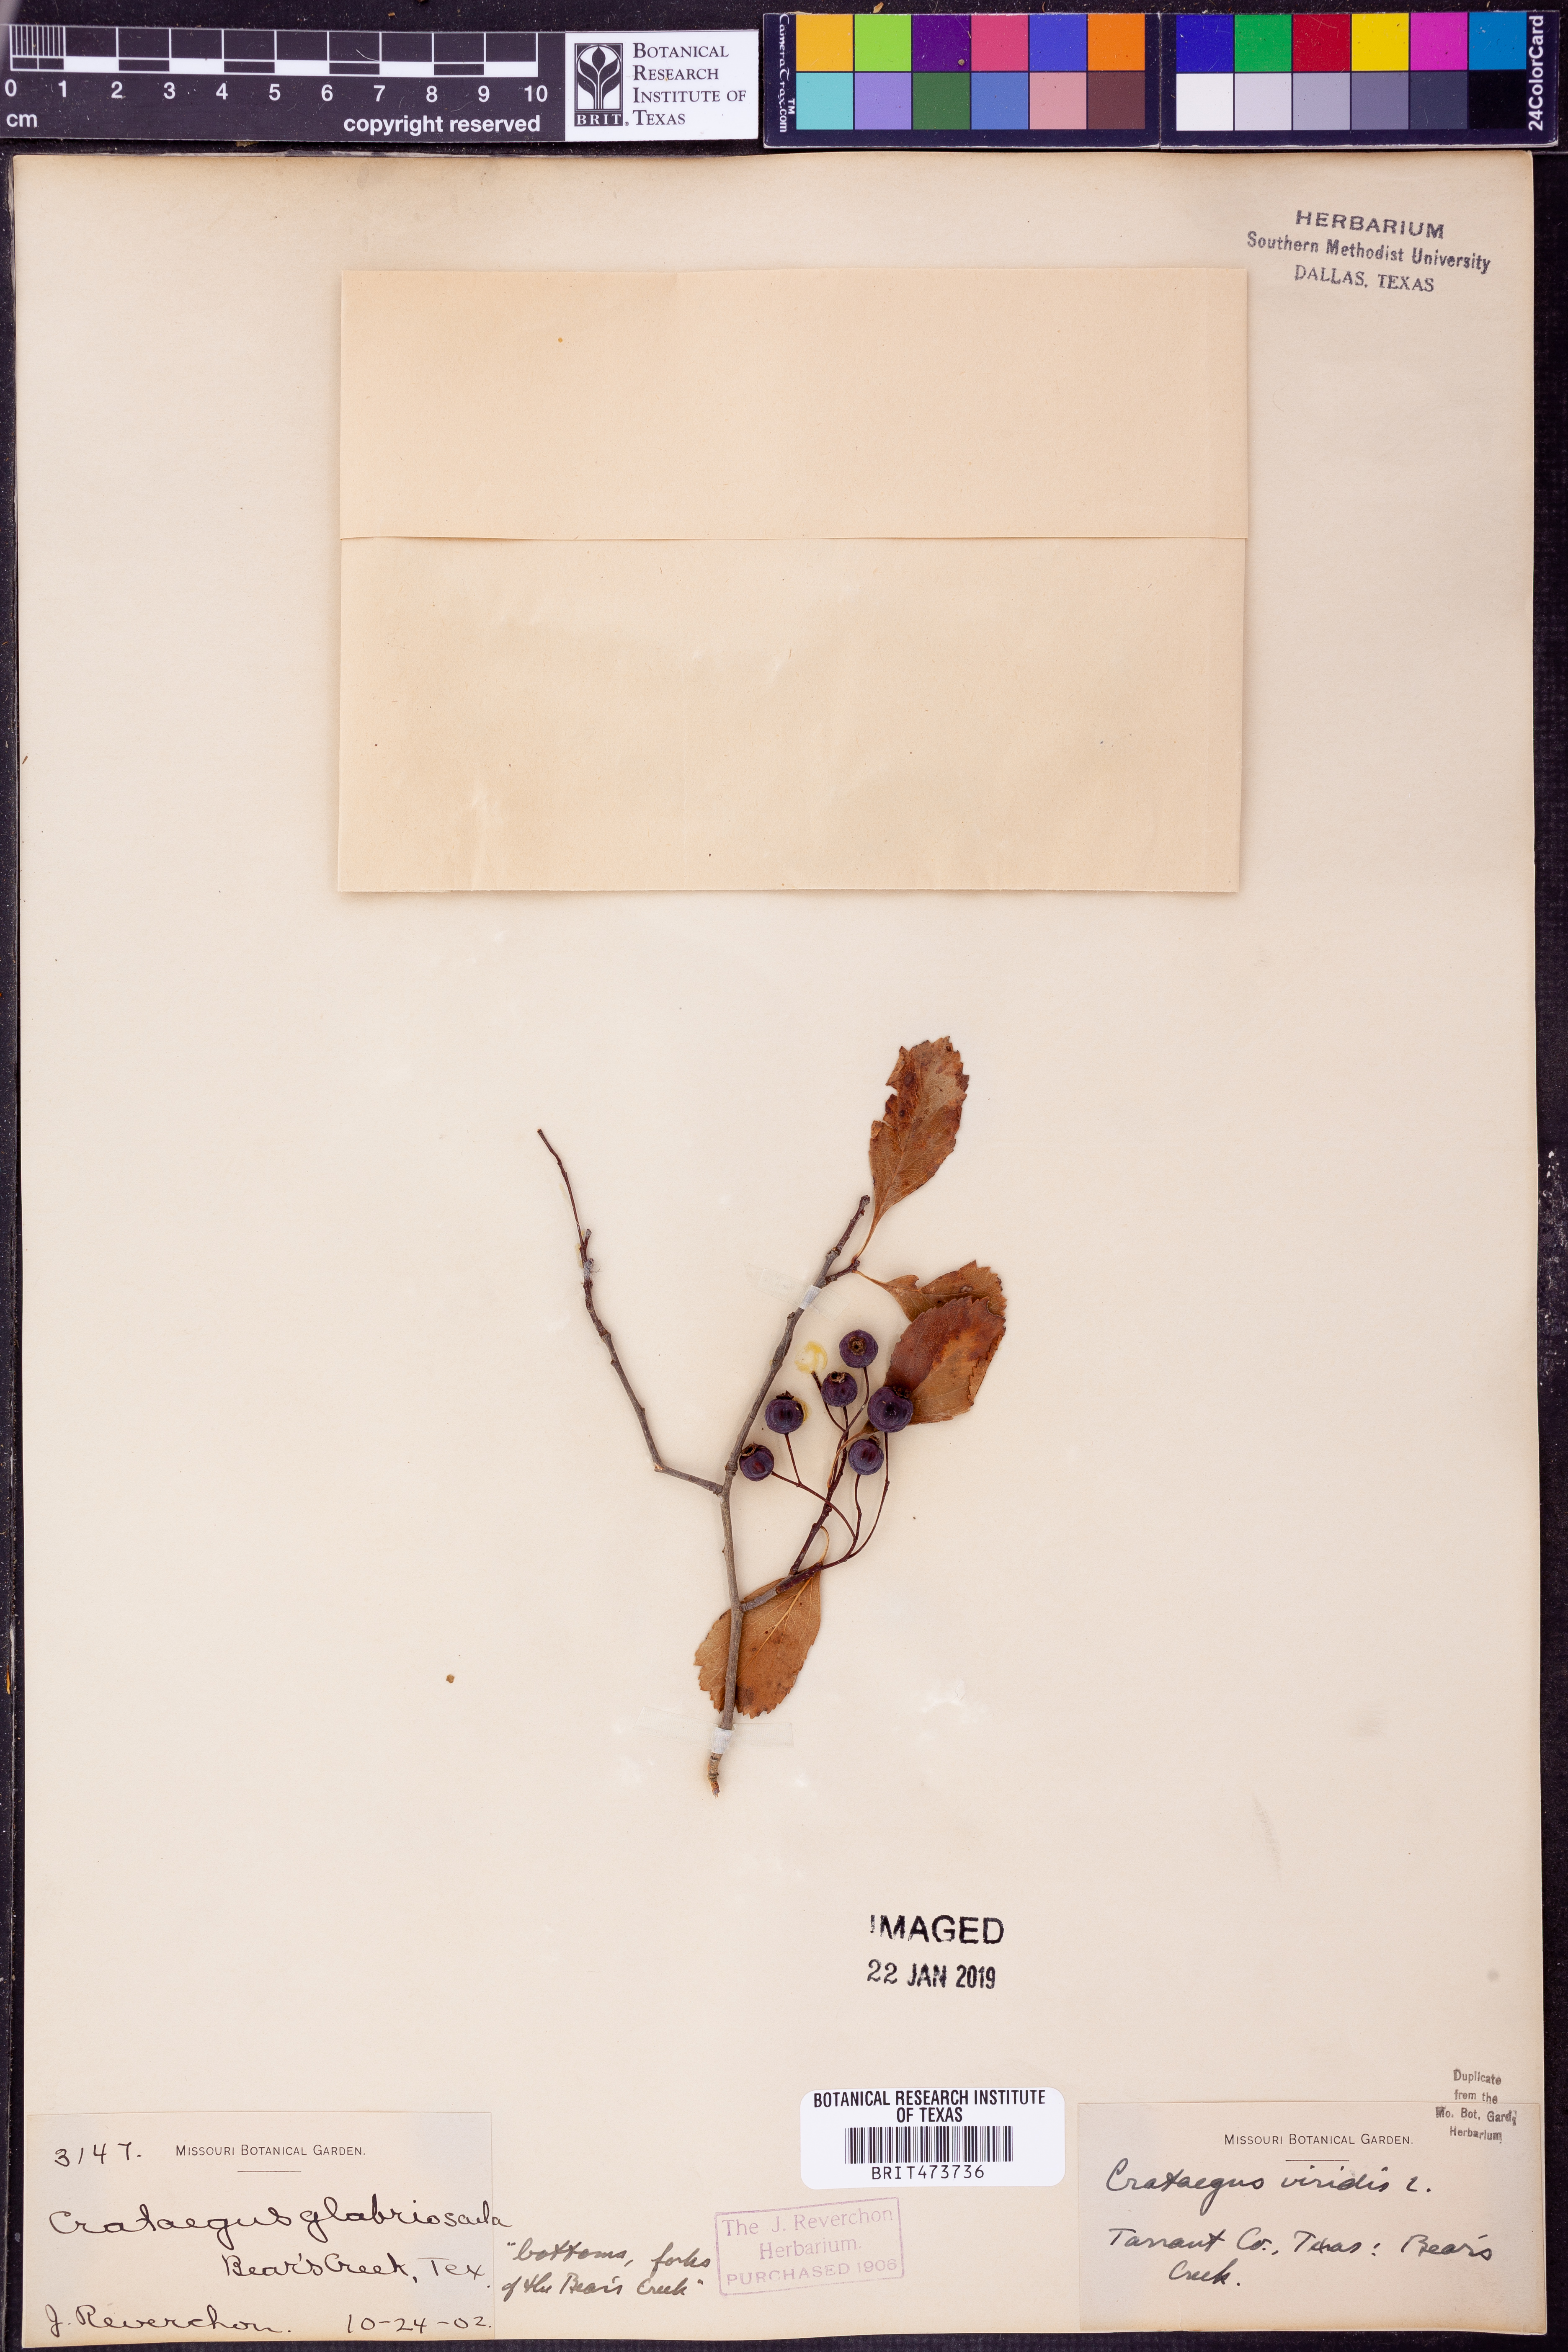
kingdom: Plantae
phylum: Tracheophyta
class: Magnoliopsida
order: Rosales
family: Rosaceae
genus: Crataegus
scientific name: Crataegus viridis
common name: Southernthorn
